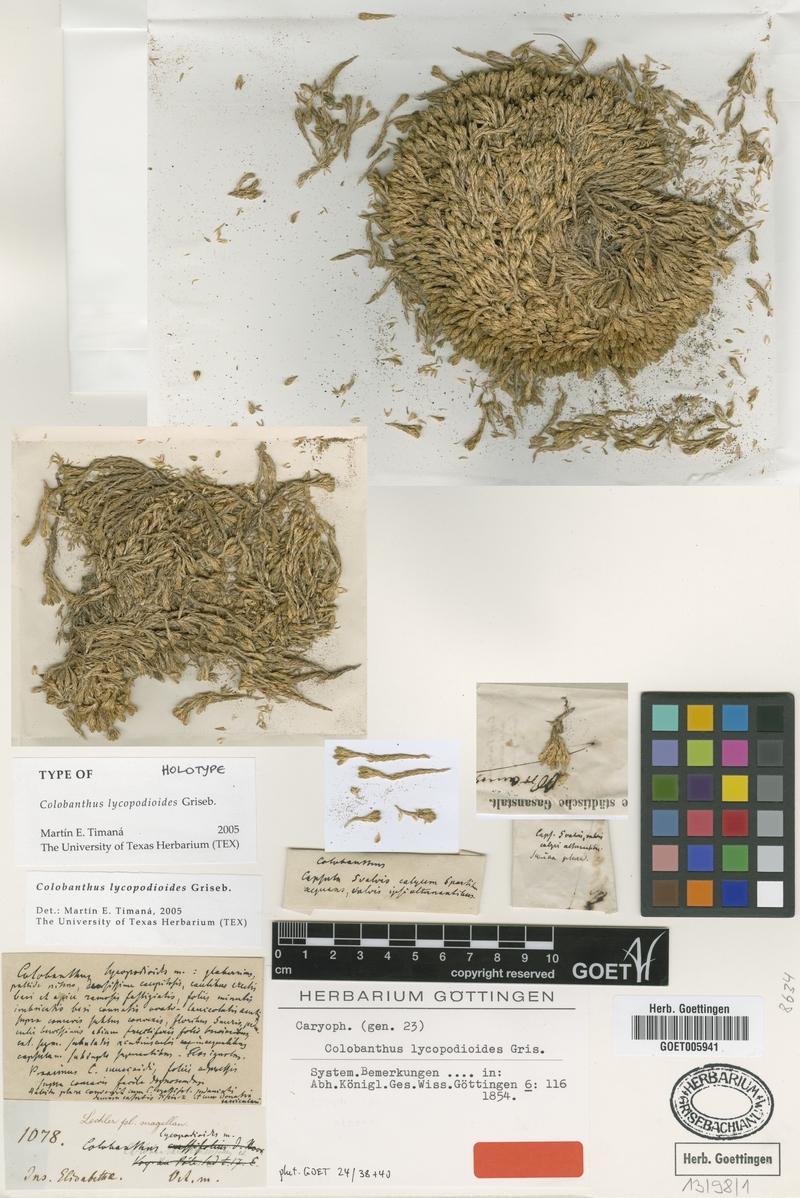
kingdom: Plantae
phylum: Tracheophyta
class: Magnoliopsida
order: Caryophyllales
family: Caryophyllaceae
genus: Colobanthus
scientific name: Colobanthus lycopodioides
